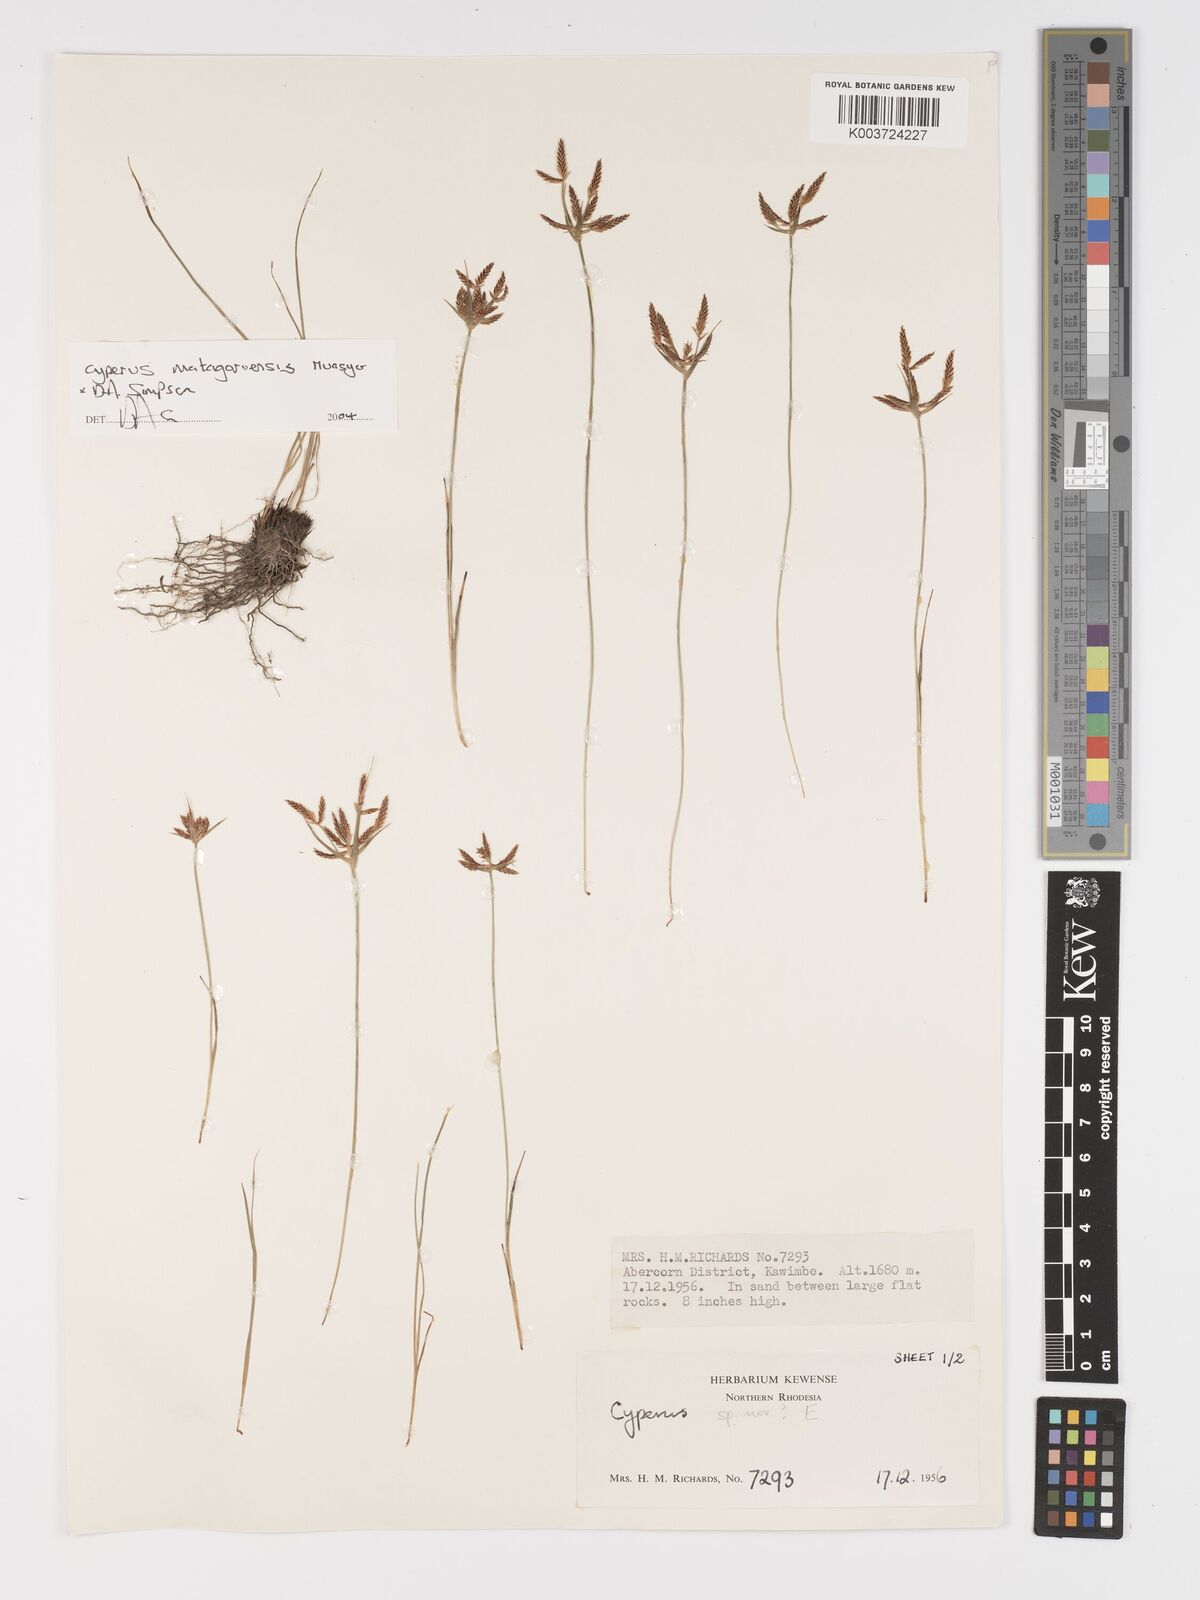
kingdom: Plantae
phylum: Tracheophyta
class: Liliopsida
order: Poales
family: Cyperaceae
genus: Cyperus
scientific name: Cyperus matagoroensis
